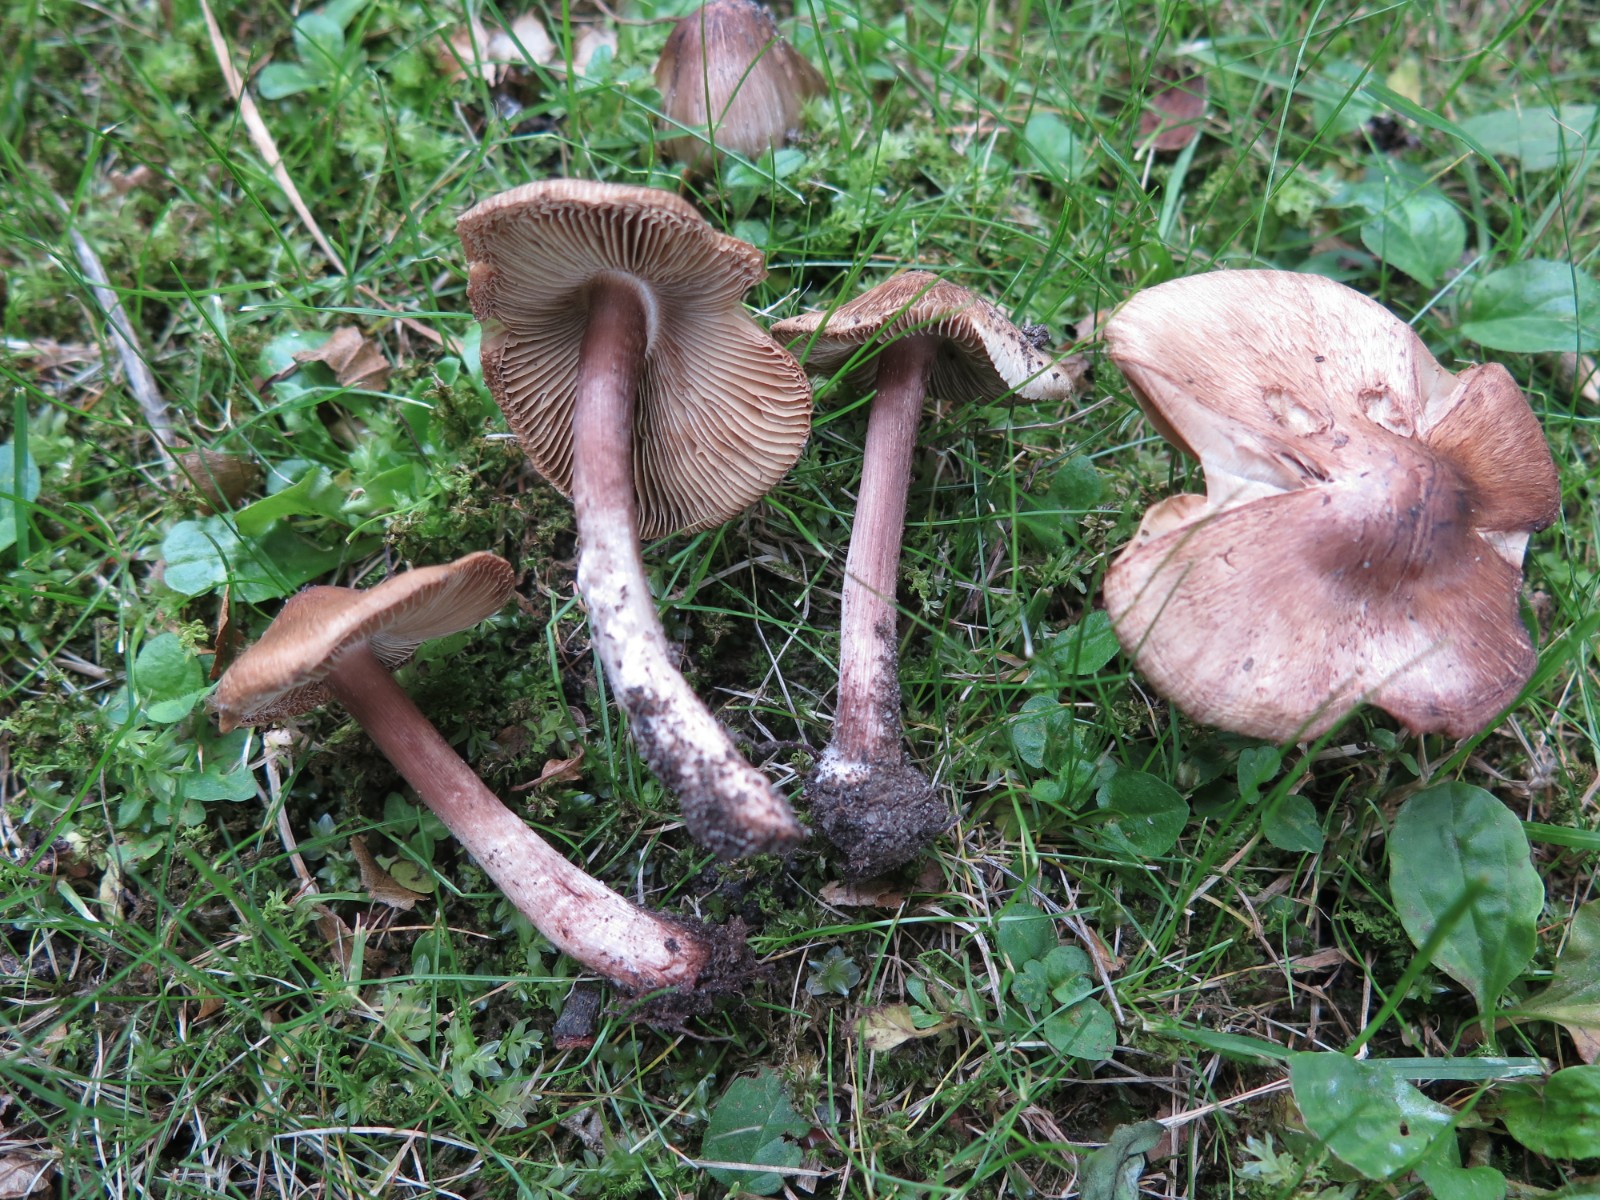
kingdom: Fungi
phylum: Basidiomycota
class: Agaricomycetes
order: Agaricales
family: Inocybaceae
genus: Inosperma
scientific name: Inosperma adaequatum
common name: vinrød trævlhat
